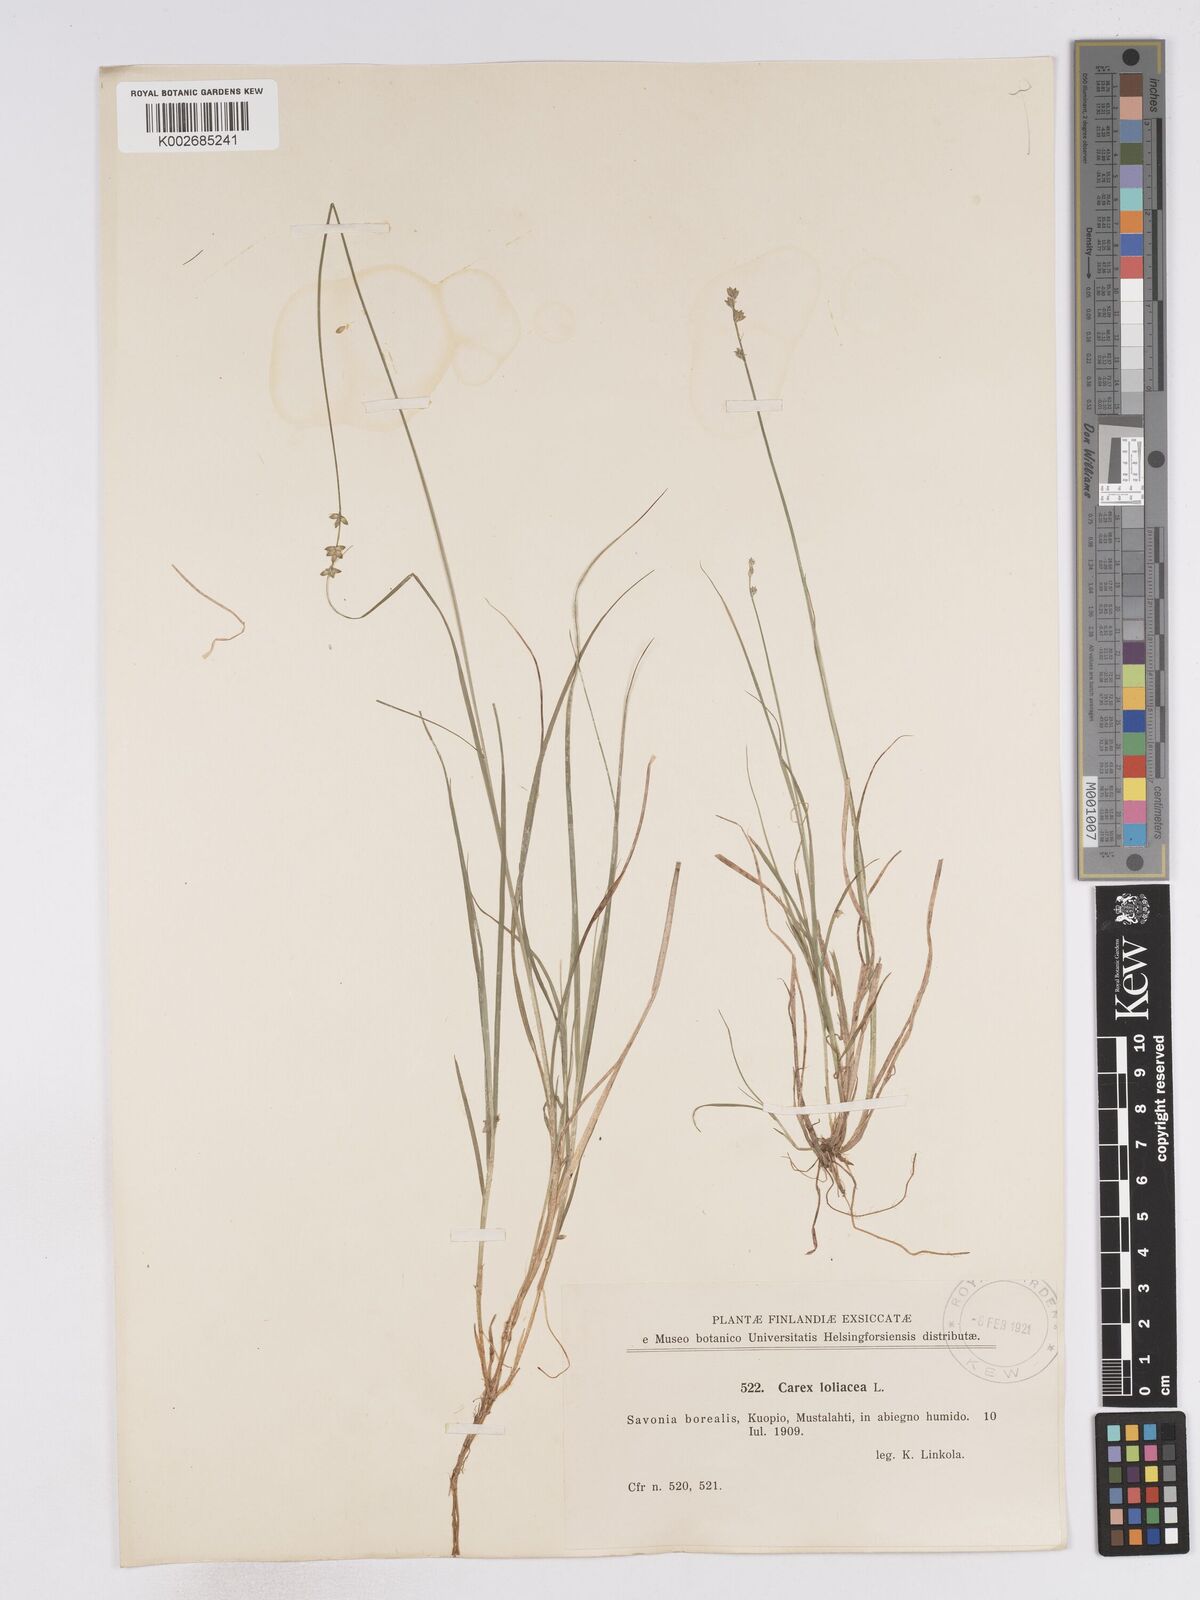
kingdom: Plantae
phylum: Tracheophyta
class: Liliopsida
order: Poales
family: Cyperaceae
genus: Carex
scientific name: Carex loliacea
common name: Ryegrass sedge
